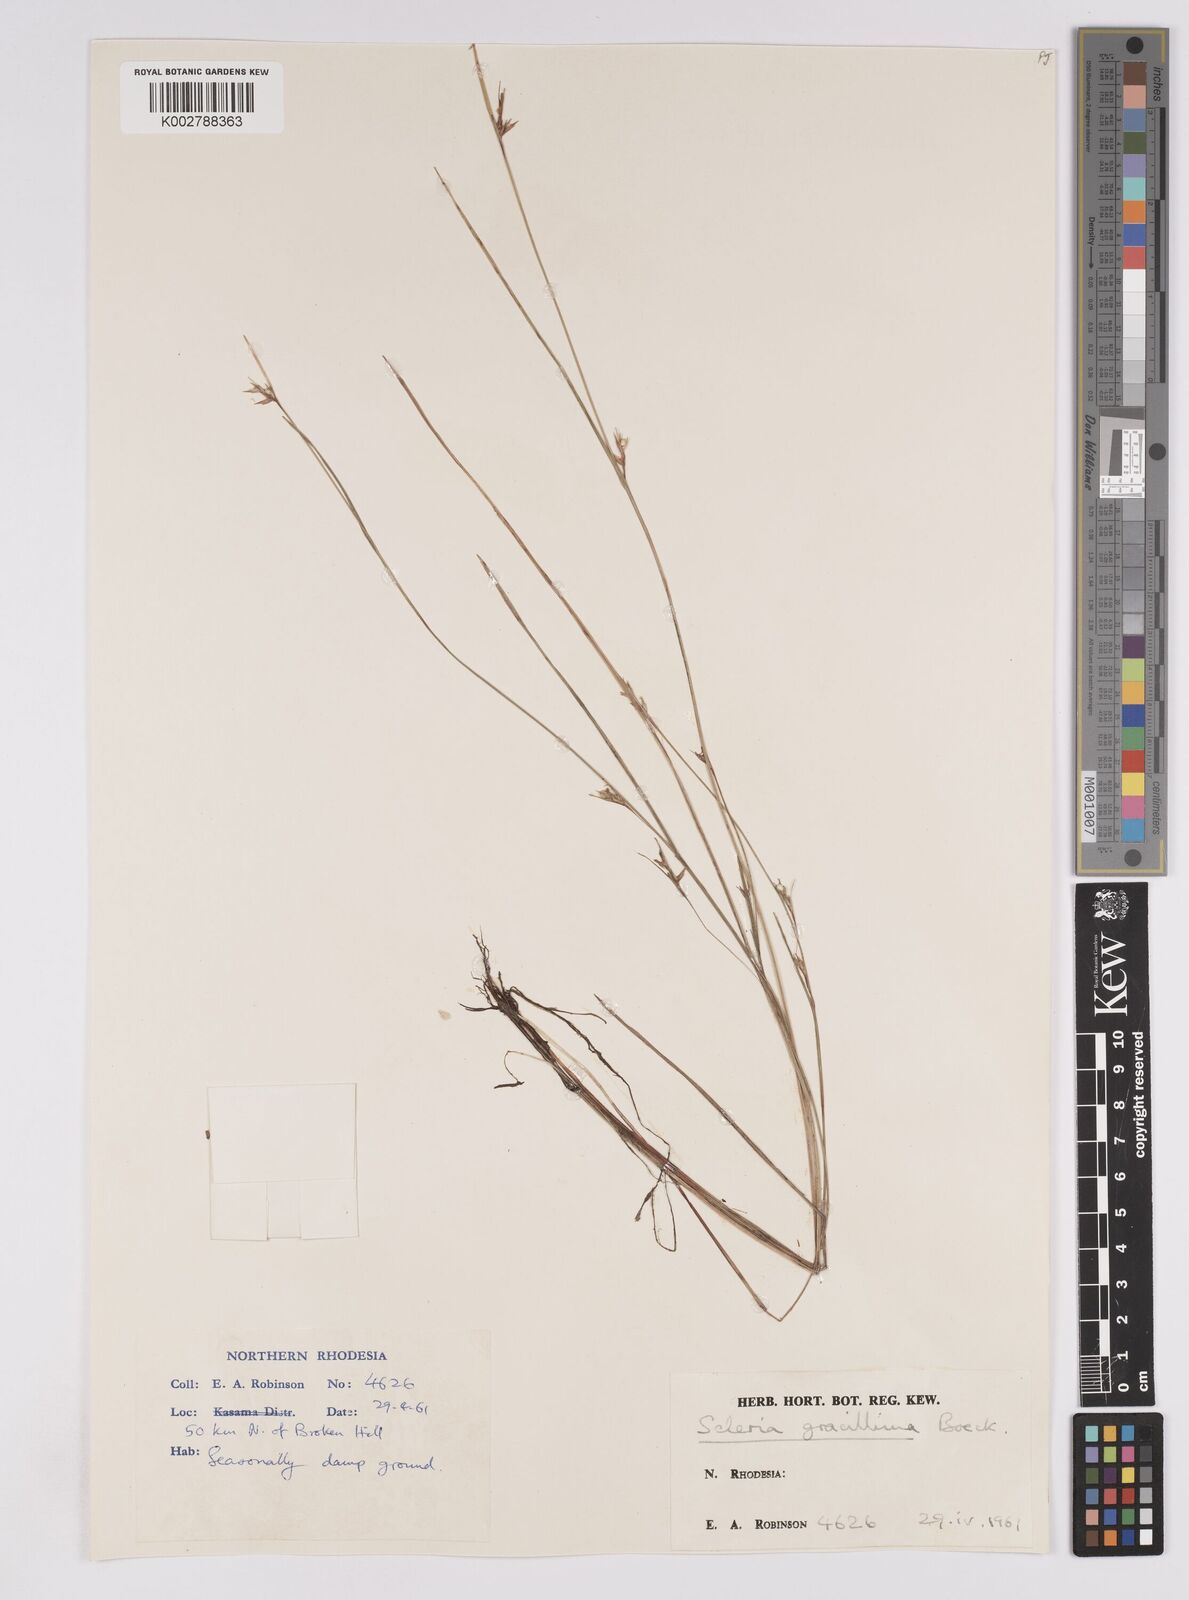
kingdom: Plantae
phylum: Tracheophyta
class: Liliopsida
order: Poales
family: Cyperaceae
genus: Scleria
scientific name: Scleria gracillima
